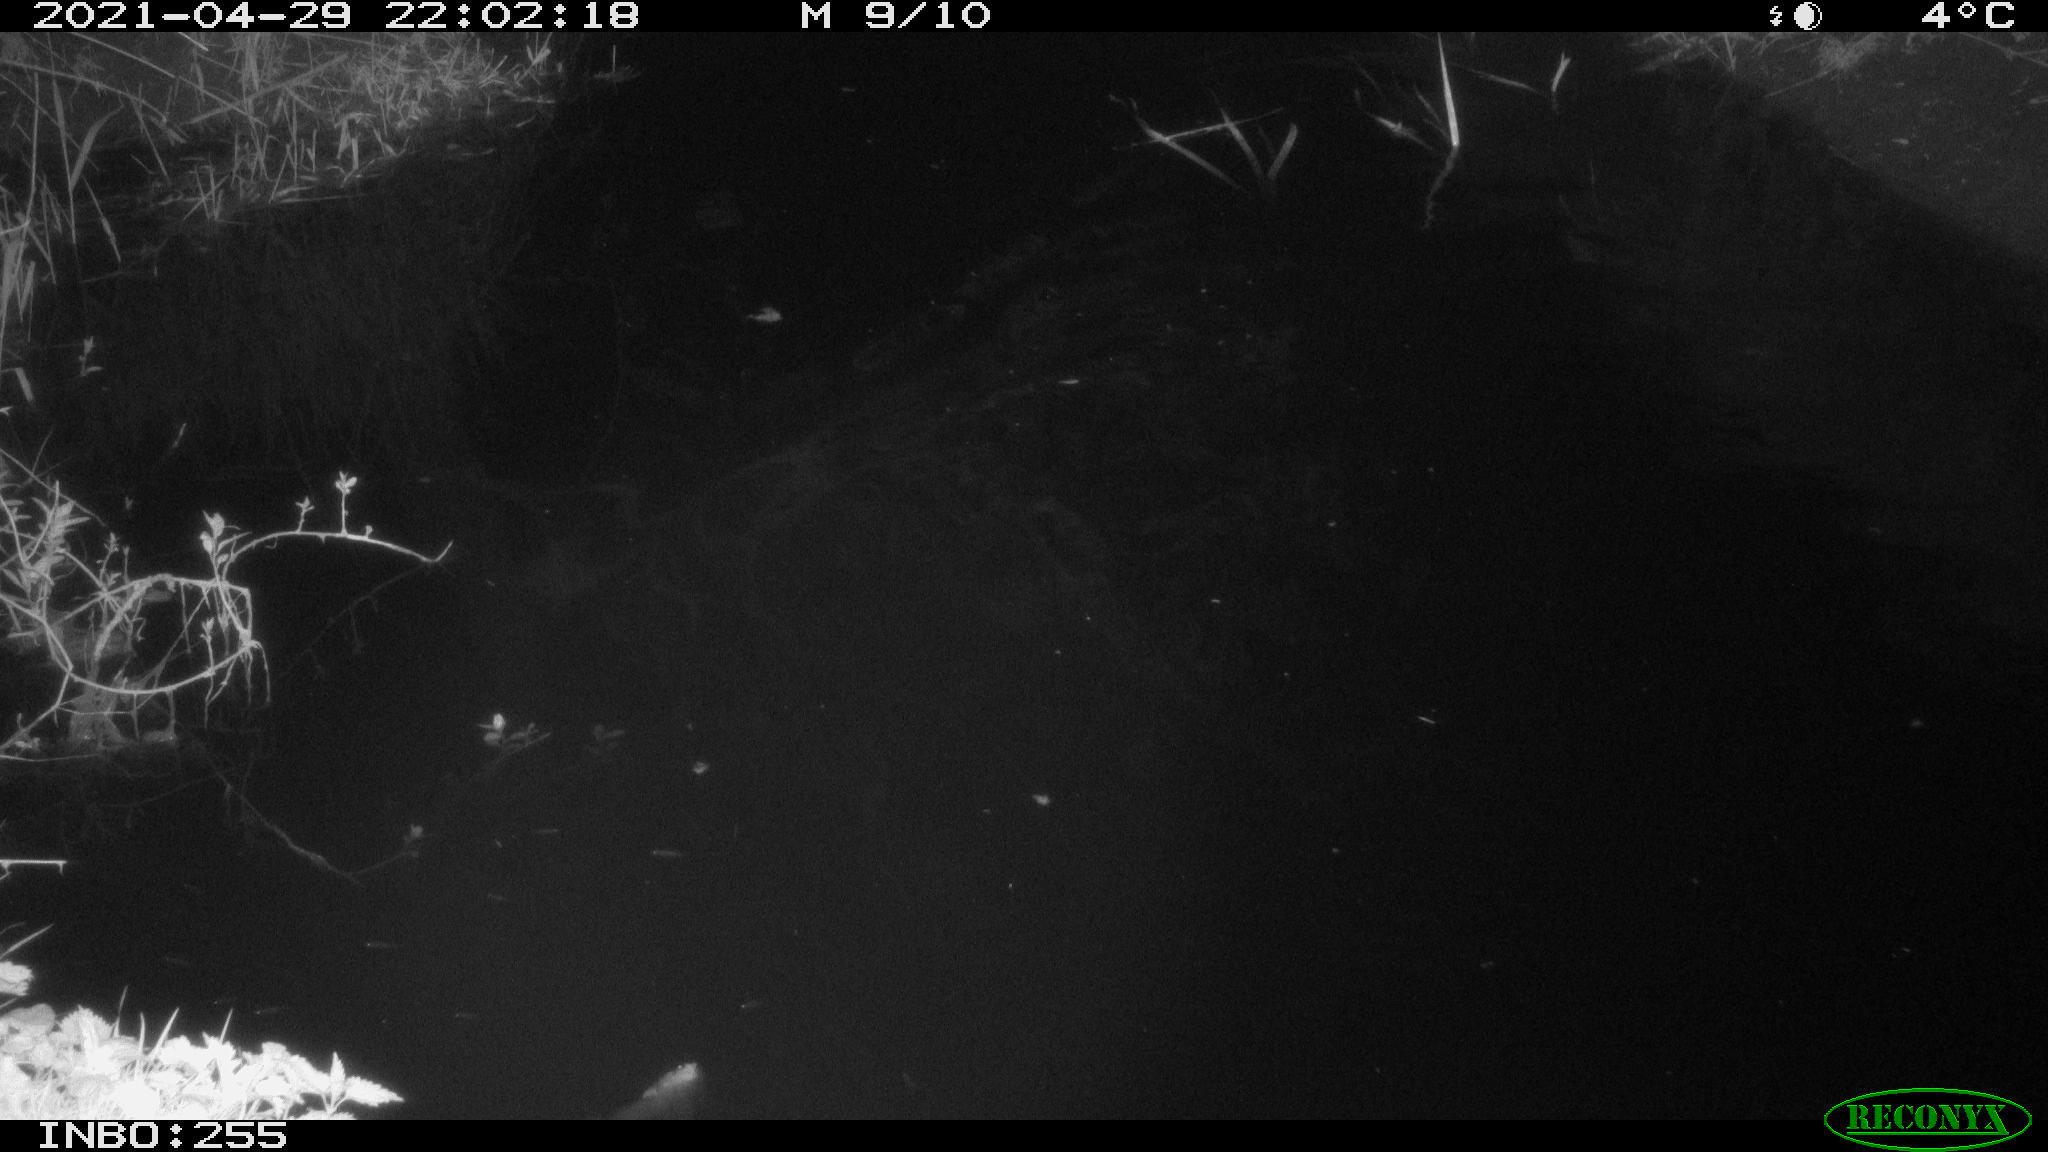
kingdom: Animalia
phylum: Chordata
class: Aves
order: Anseriformes
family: Anatidae
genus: Anas
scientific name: Anas platyrhynchos
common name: Mallard
